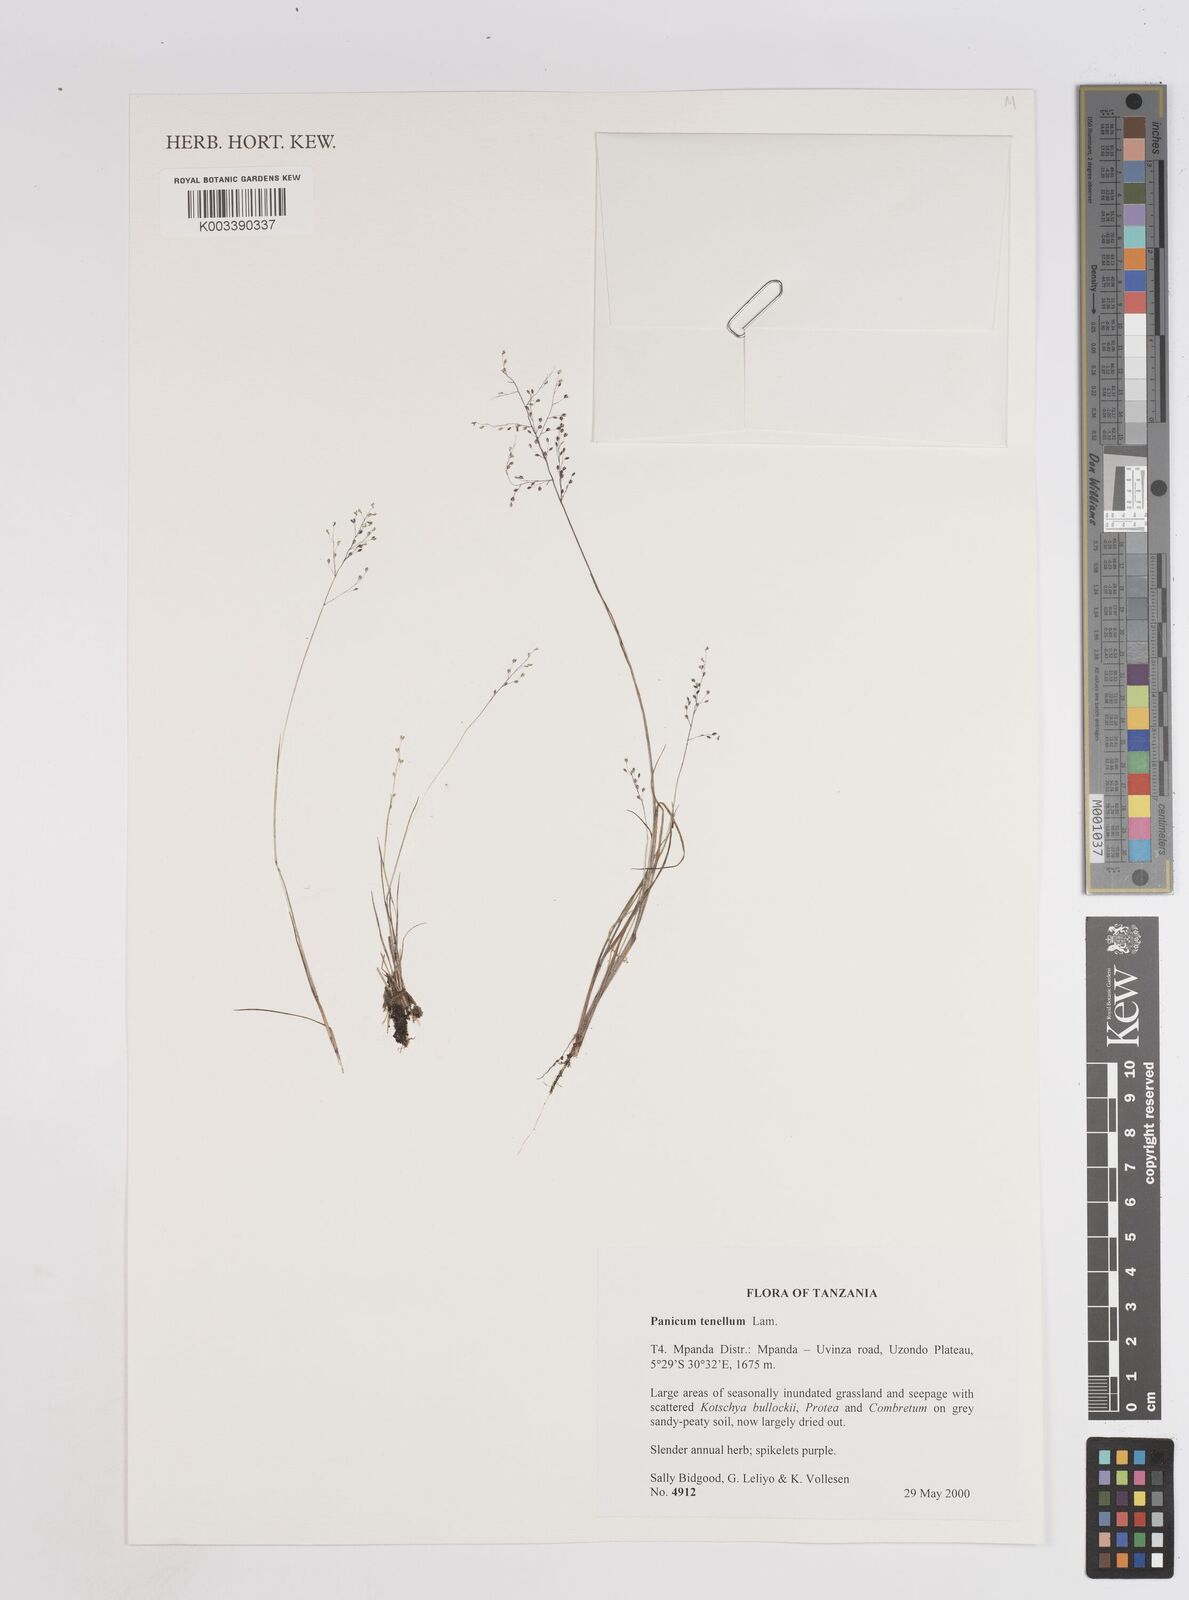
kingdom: Plantae
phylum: Tracheophyta
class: Liliopsida
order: Poales
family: Poaceae
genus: Trichanthecium
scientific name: Trichanthecium tenellum
